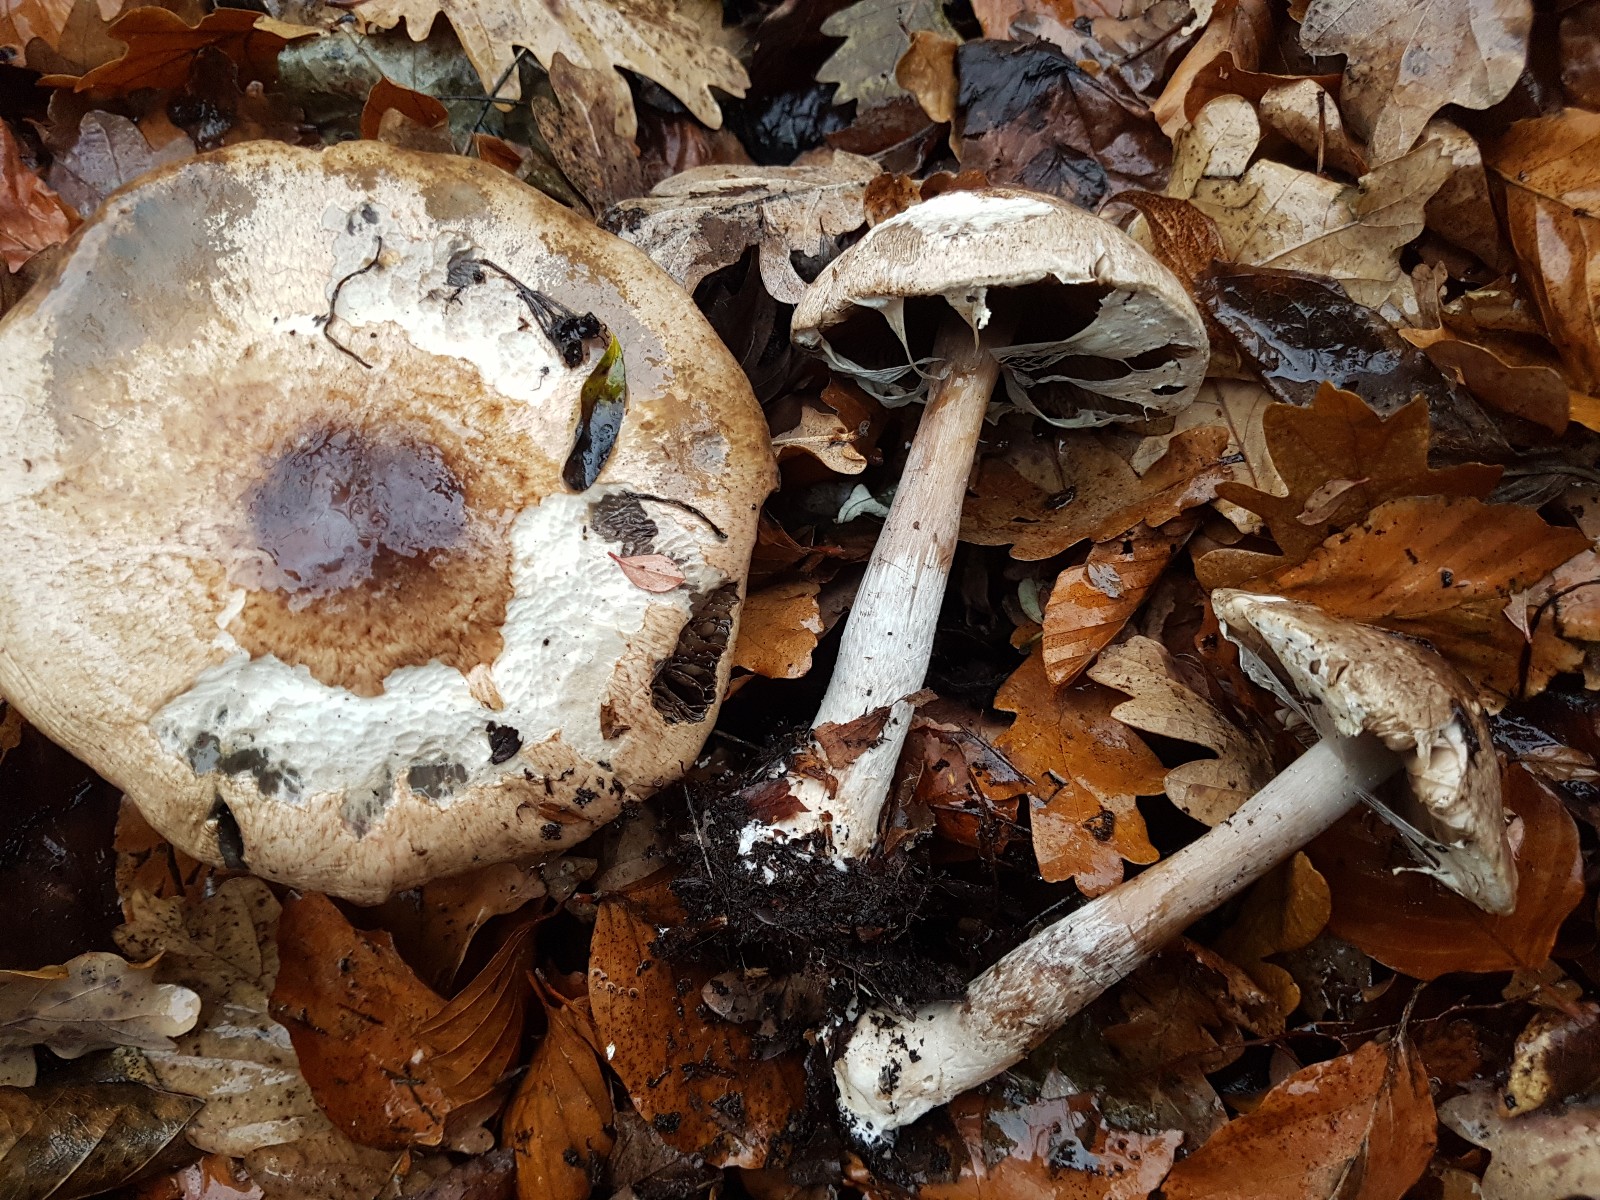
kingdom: Fungi
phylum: Basidiomycota
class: Agaricomycetes
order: Agaricales
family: Agaricaceae
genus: Agaricus
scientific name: Agaricus impudicus
